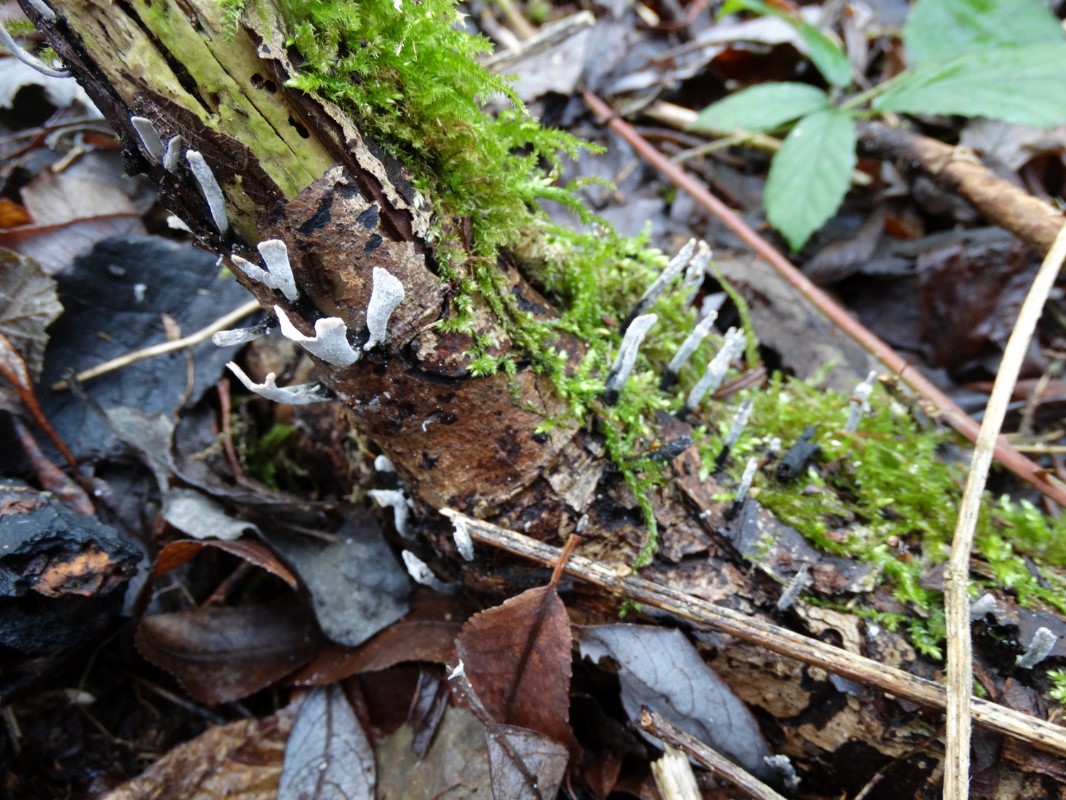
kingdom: Fungi
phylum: Ascomycota
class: Sordariomycetes
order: Xylariales
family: Xylariaceae
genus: Xylaria
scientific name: Xylaria hypoxylon
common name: grenet stødsvamp
